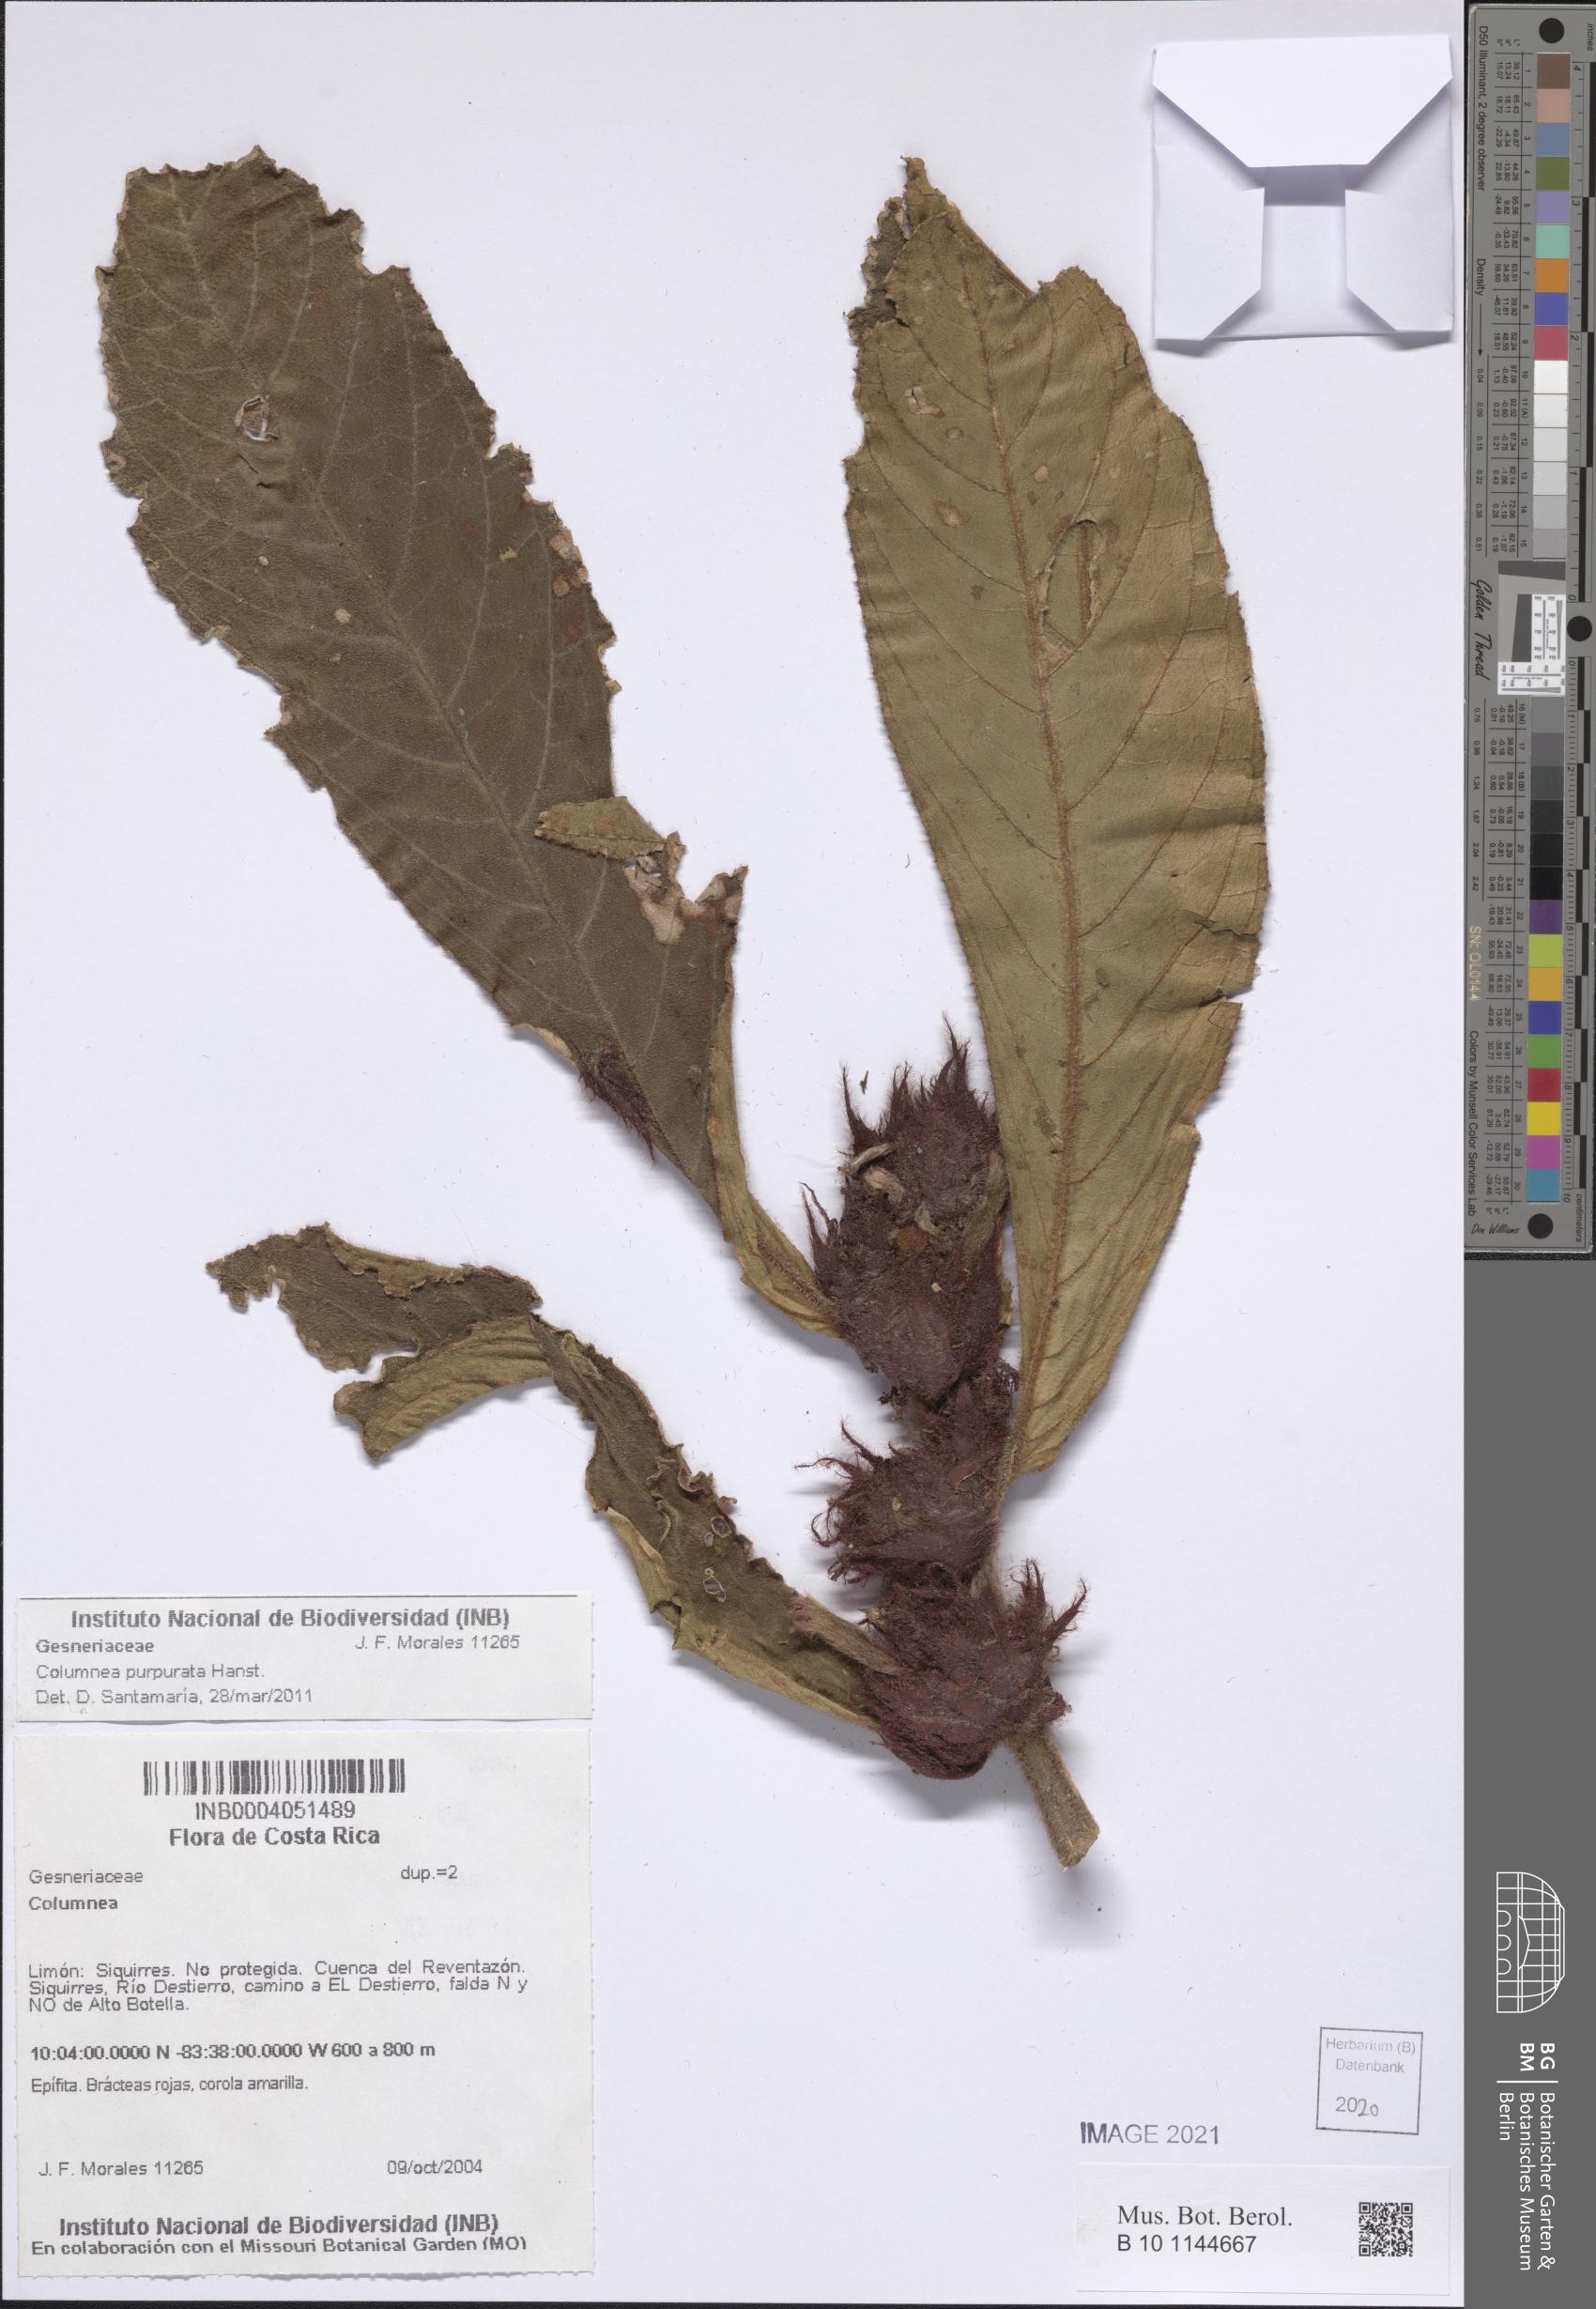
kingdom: Plantae
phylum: Tracheophyta
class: Magnoliopsida
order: Lamiales
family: Gesneriaceae
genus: Columnea
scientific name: Columnea
